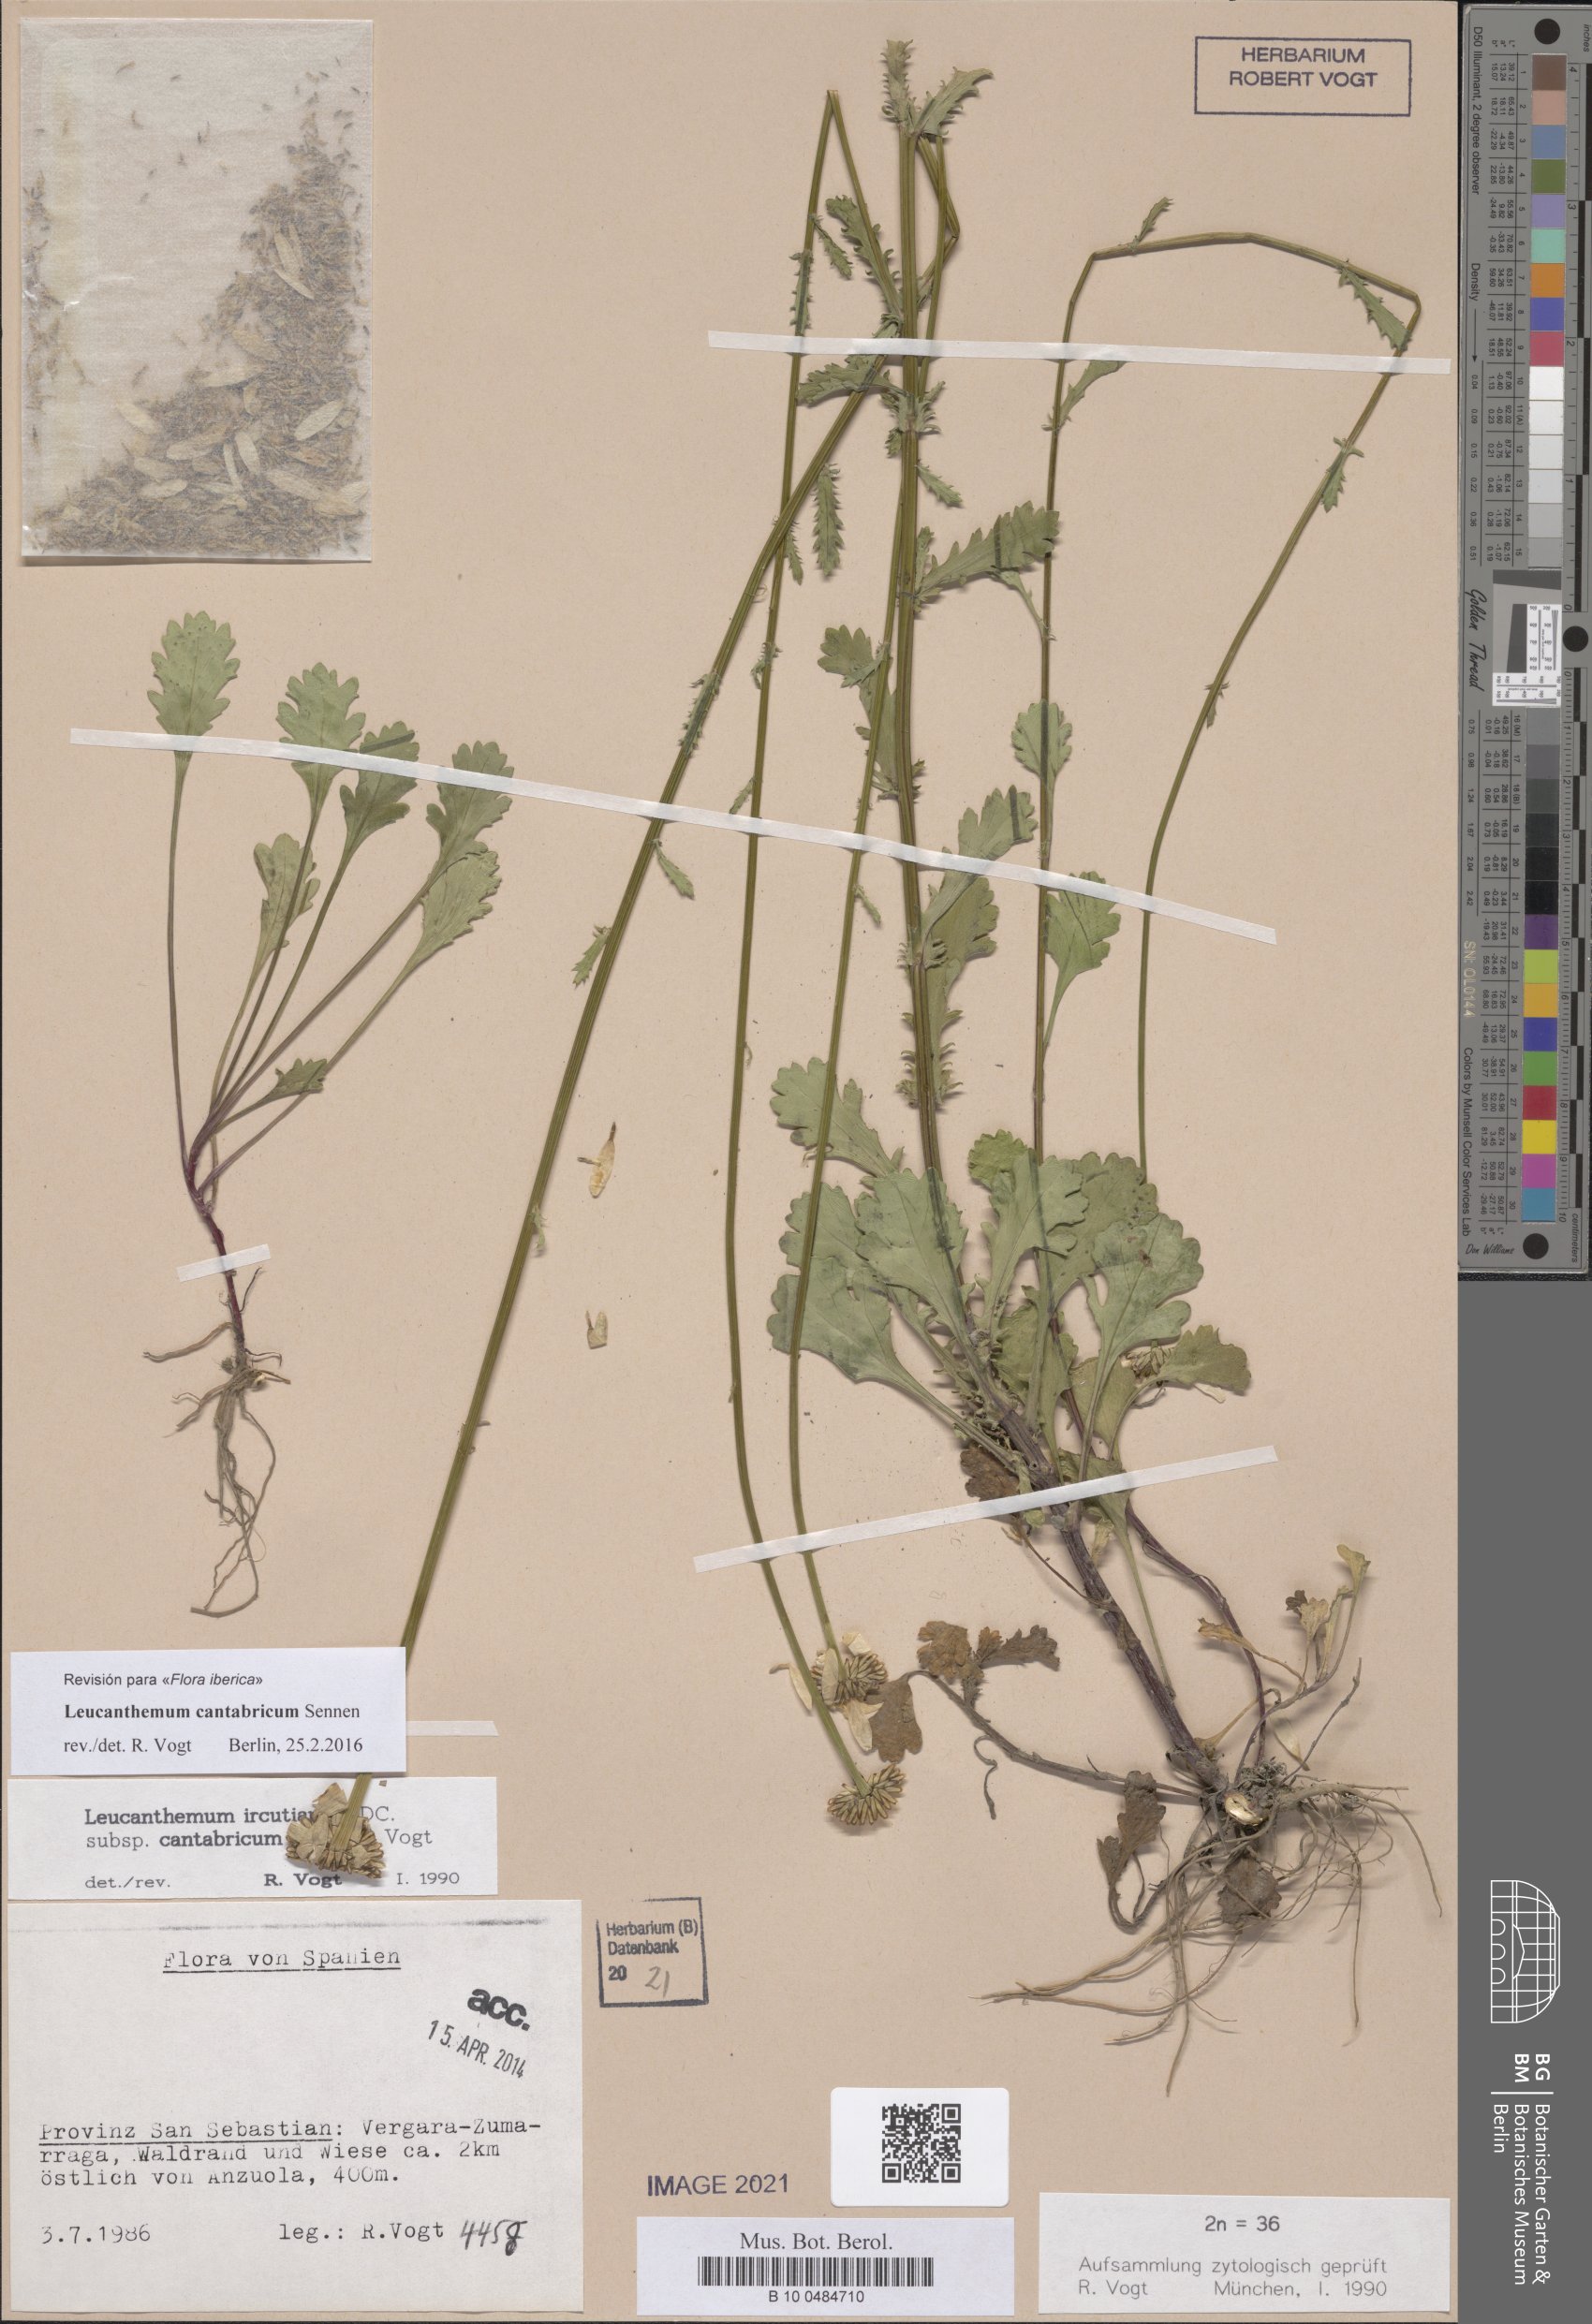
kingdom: Plantae
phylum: Tracheophyta
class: Magnoliopsida
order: Asterales
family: Asteraceae
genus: Leucanthemum
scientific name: Leucanthemum cantabricum
